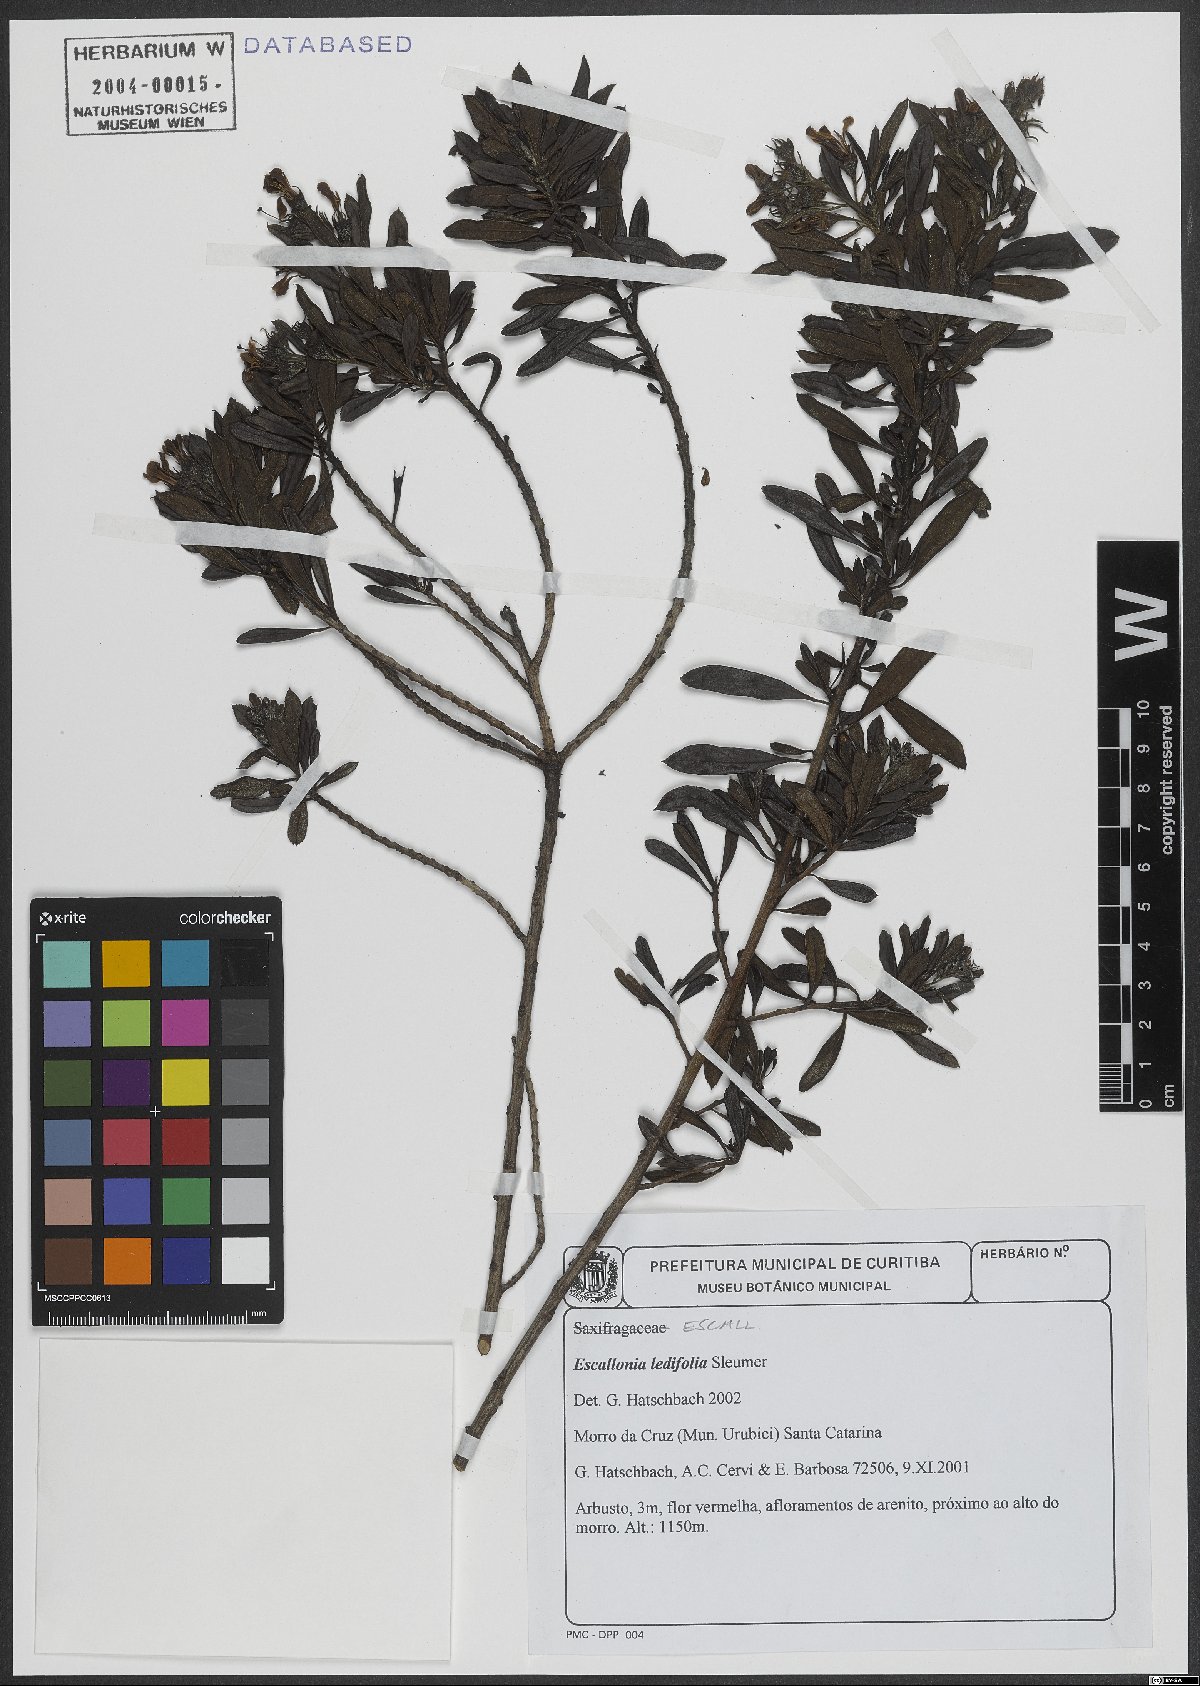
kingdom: Plantae
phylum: Tracheophyta
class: Magnoliopsida
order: Escalloniales
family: Escalloniaceae
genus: Escallonia
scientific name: Escallonia ledifolia
